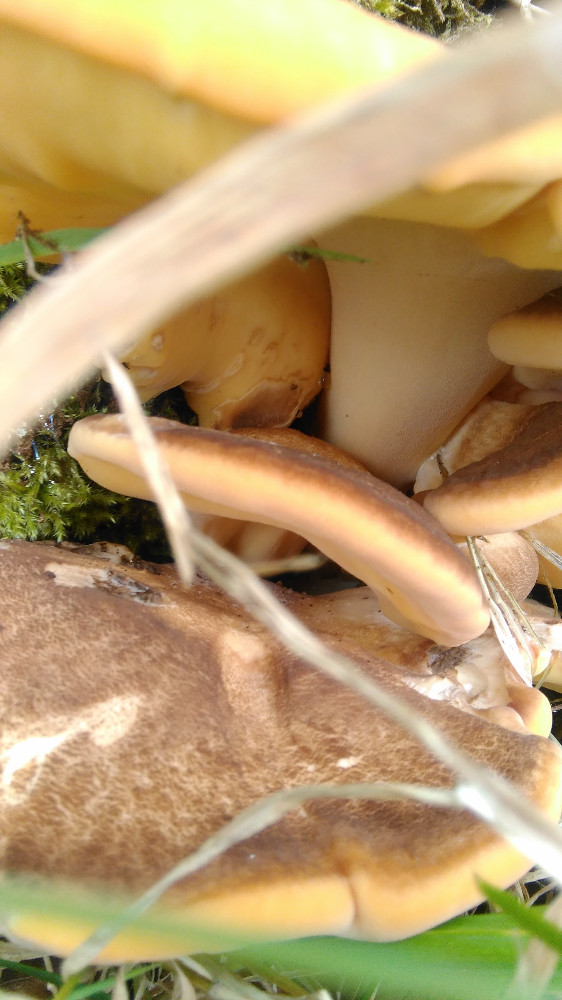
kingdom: Fungi
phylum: Basidiomycota
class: Agaricomycetes
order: Polyporales
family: Meripilaceae
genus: Meripilus
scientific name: Meripilus giganteus
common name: kæmpeporesvamp
